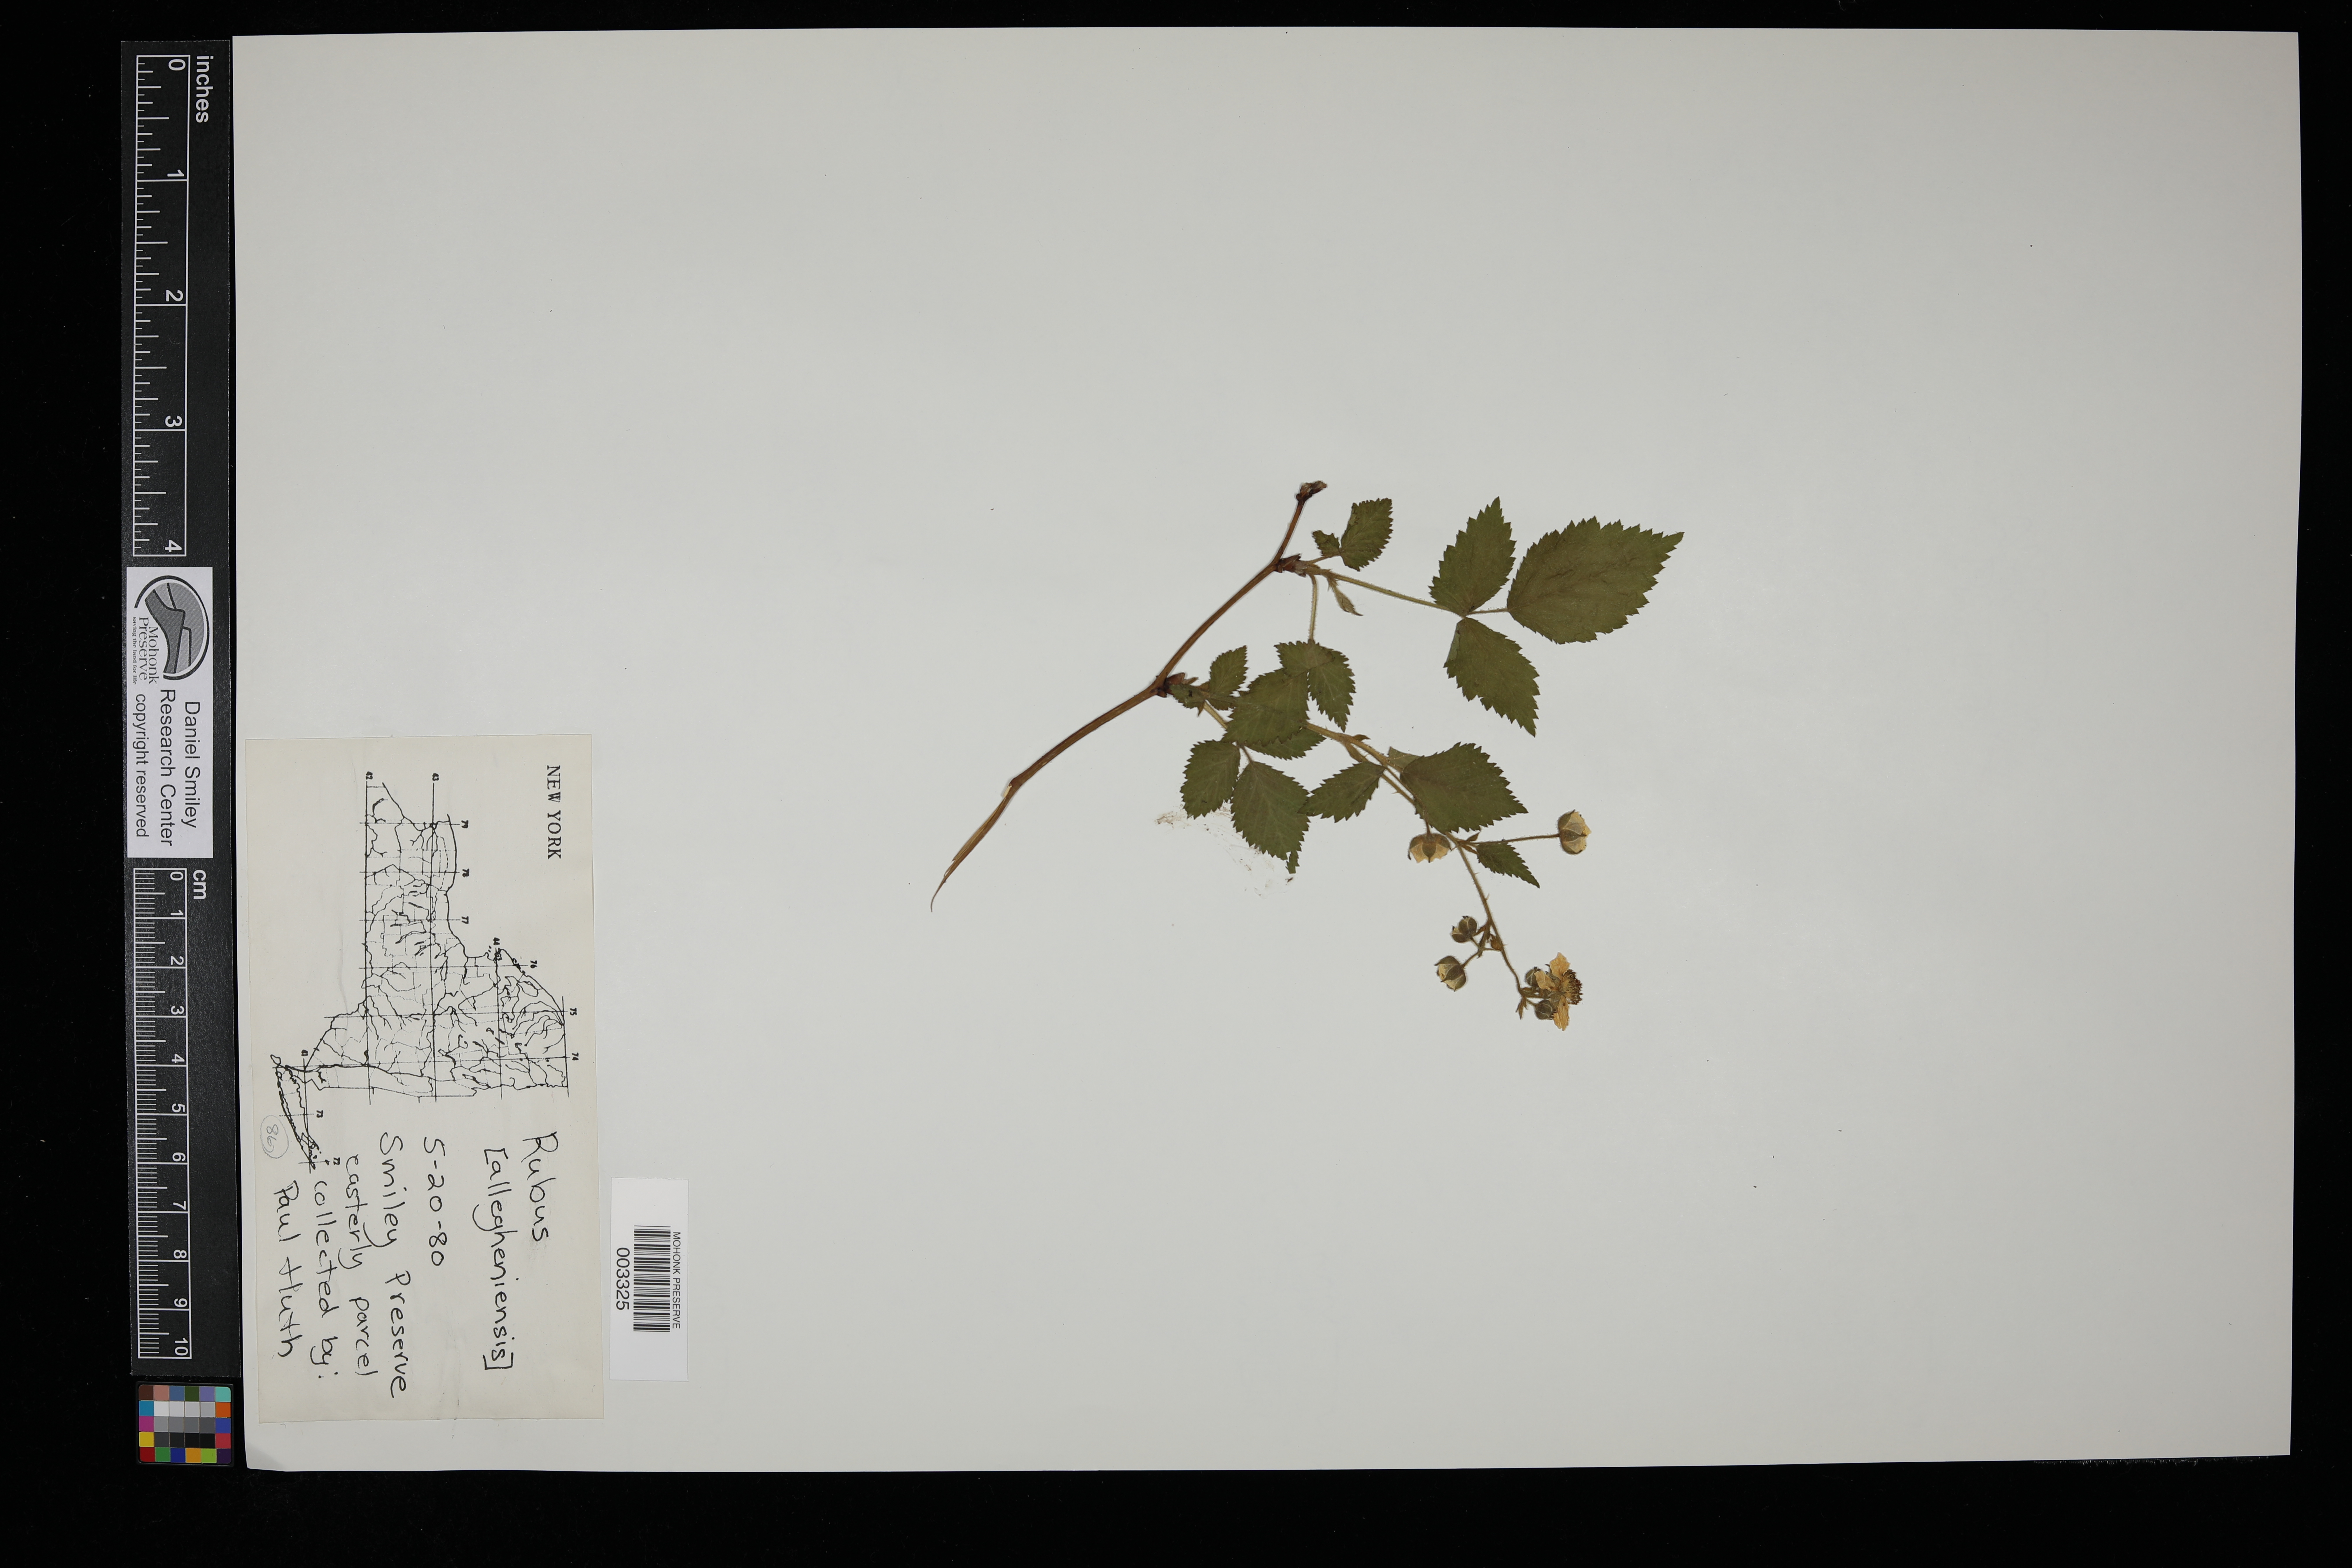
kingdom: Plantae
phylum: Tracheophyta
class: Magnoliopsida
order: Rosales
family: Rosaceae
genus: Rubus
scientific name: Rubus allegheniensis
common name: Allegheny blackberry
